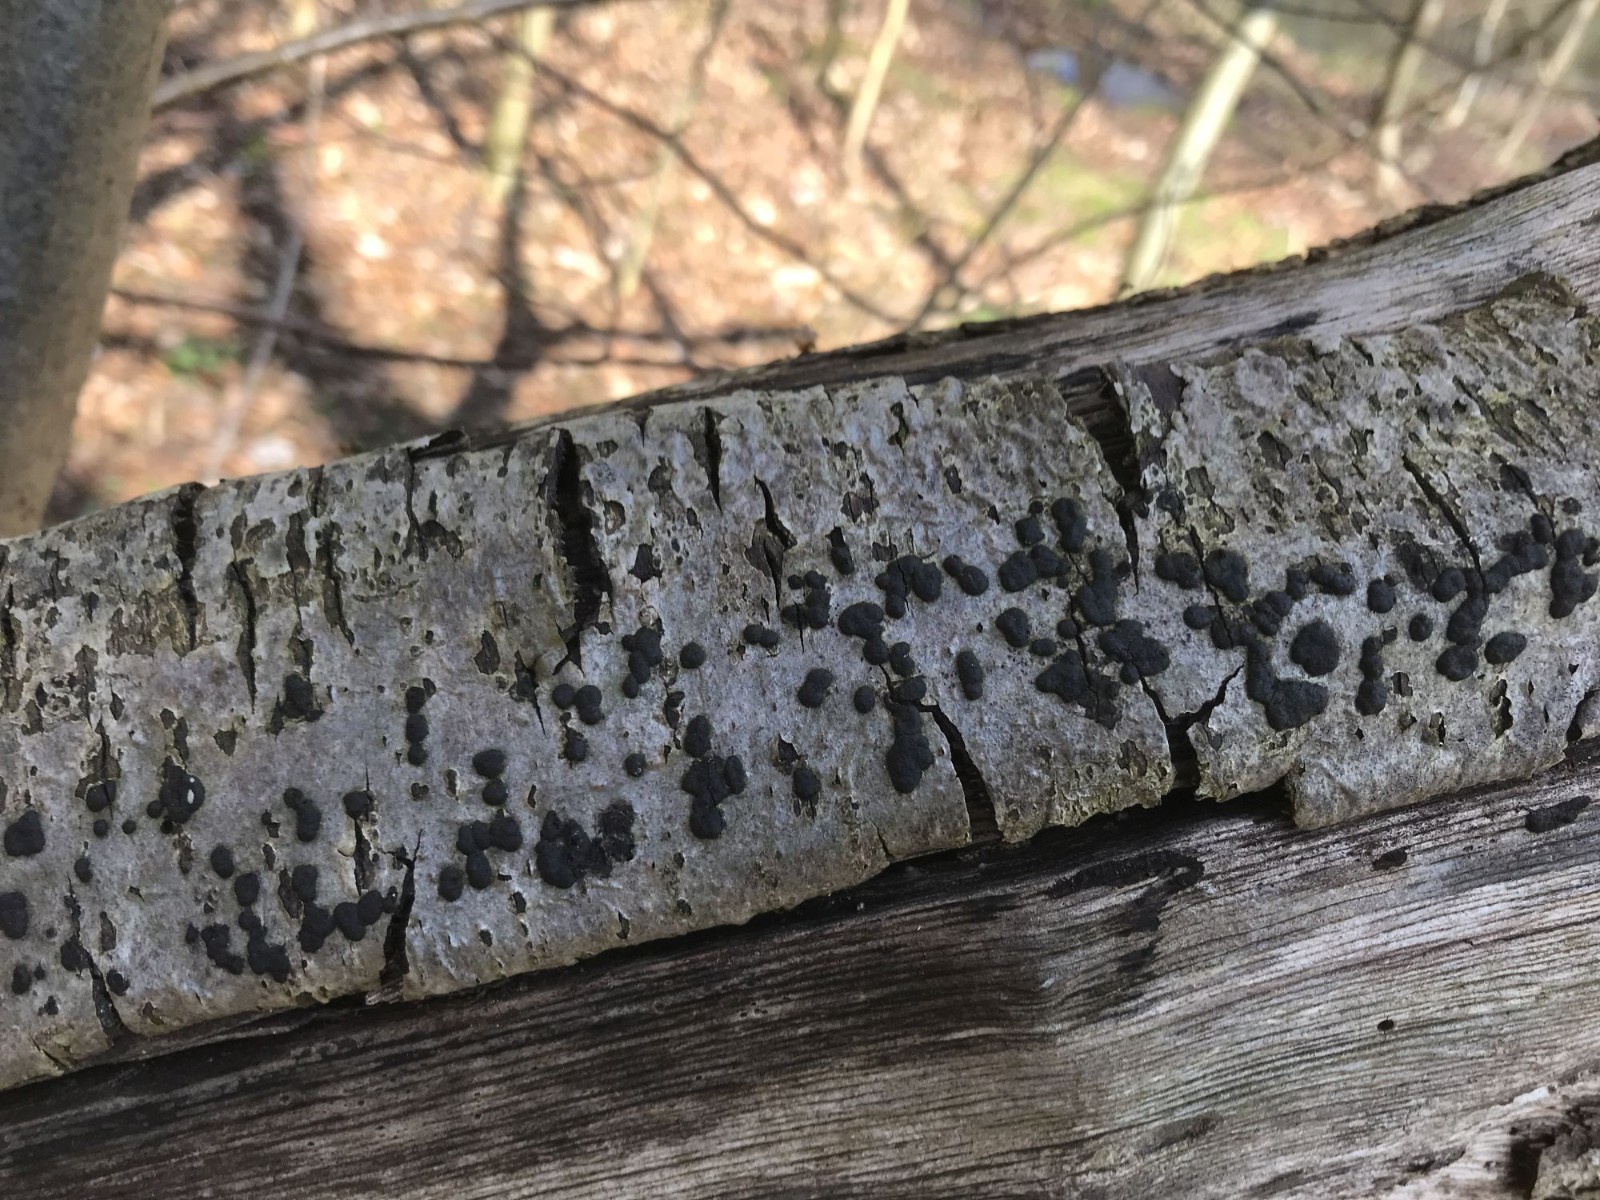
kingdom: Fungi
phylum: Ascomycota
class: Sordariomycetes
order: Xylariales
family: Hypoxylaceae
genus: Hypoxylon
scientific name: Hypoxylon fuscum
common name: kegleformet kulbær
